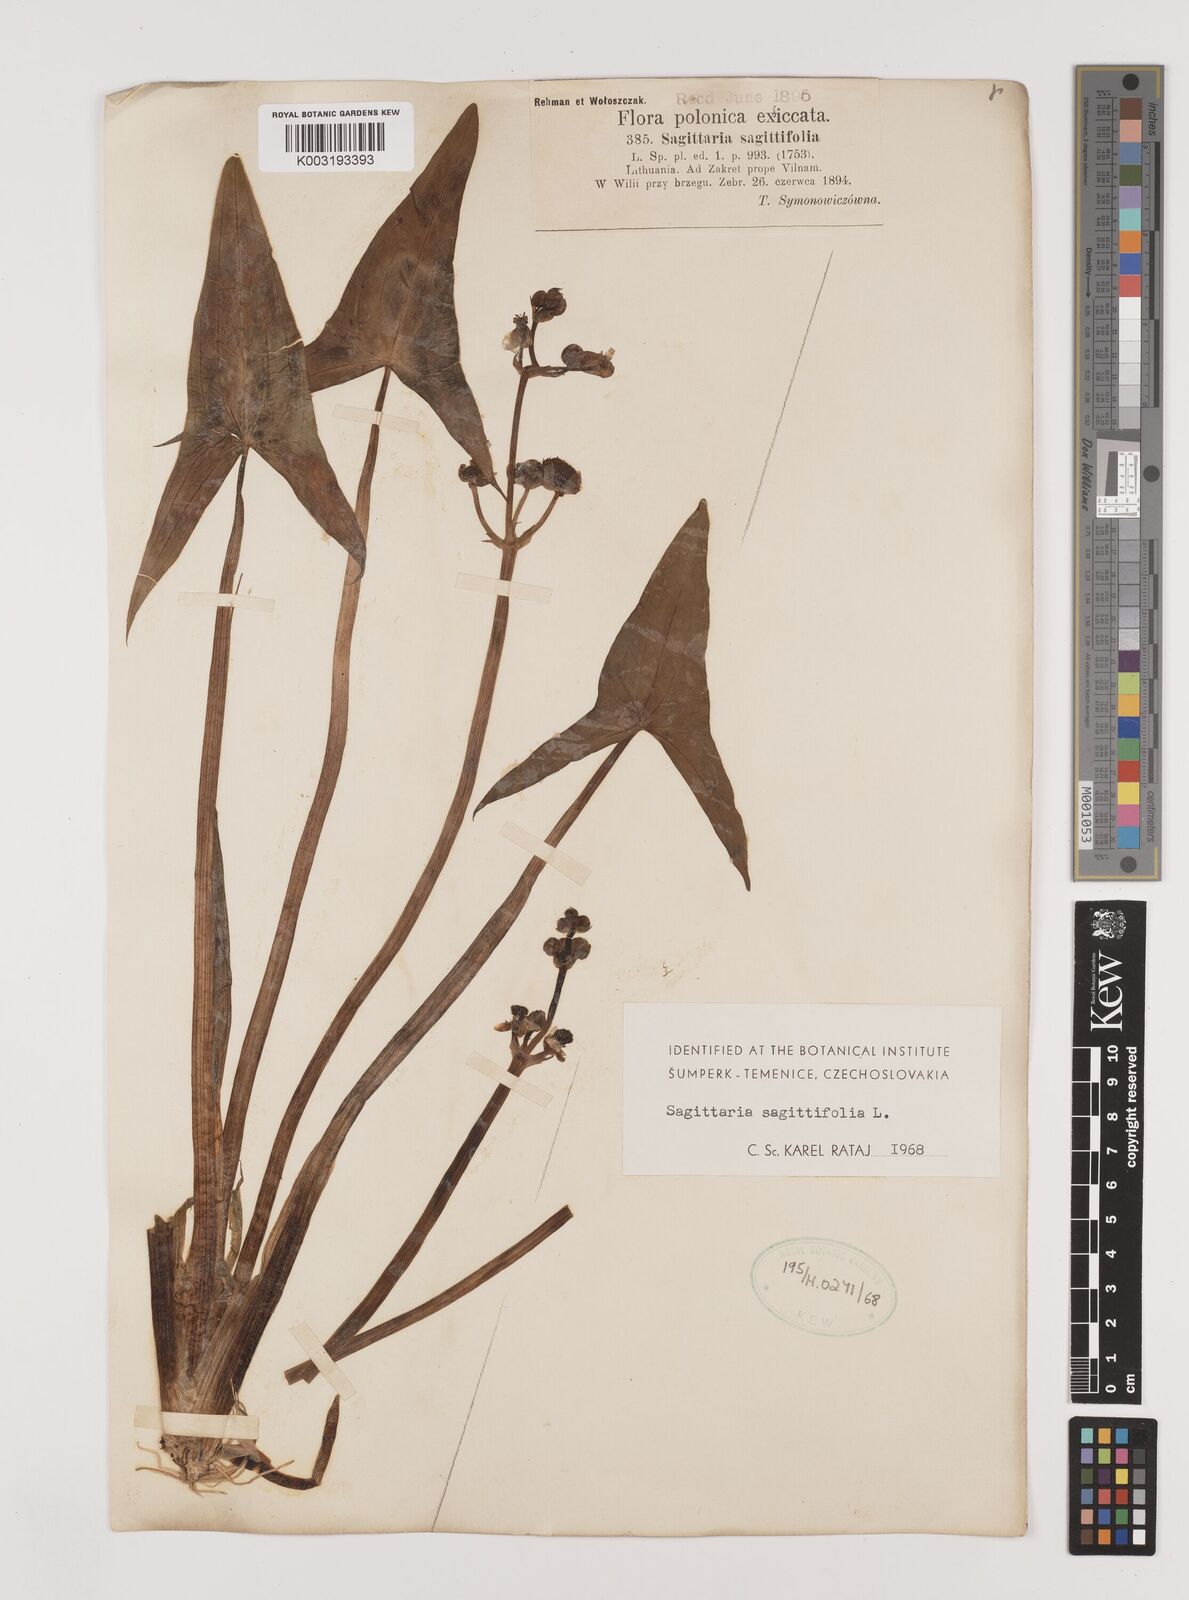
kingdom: Plantae
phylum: Tracheophyta
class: Liliopsida
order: Alismatales
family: Alismataceae
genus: Sagittaria
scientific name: Sagittaria sagittifolia
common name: Arrowhead
